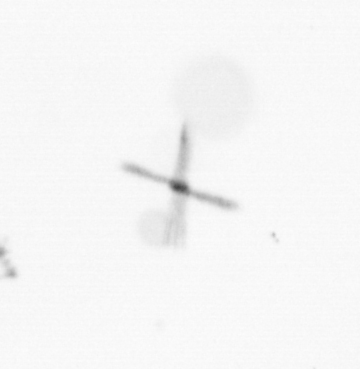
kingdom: Chromista
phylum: Ochrophyta
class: Bacillariophyceae
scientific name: Bacillariophyceae
